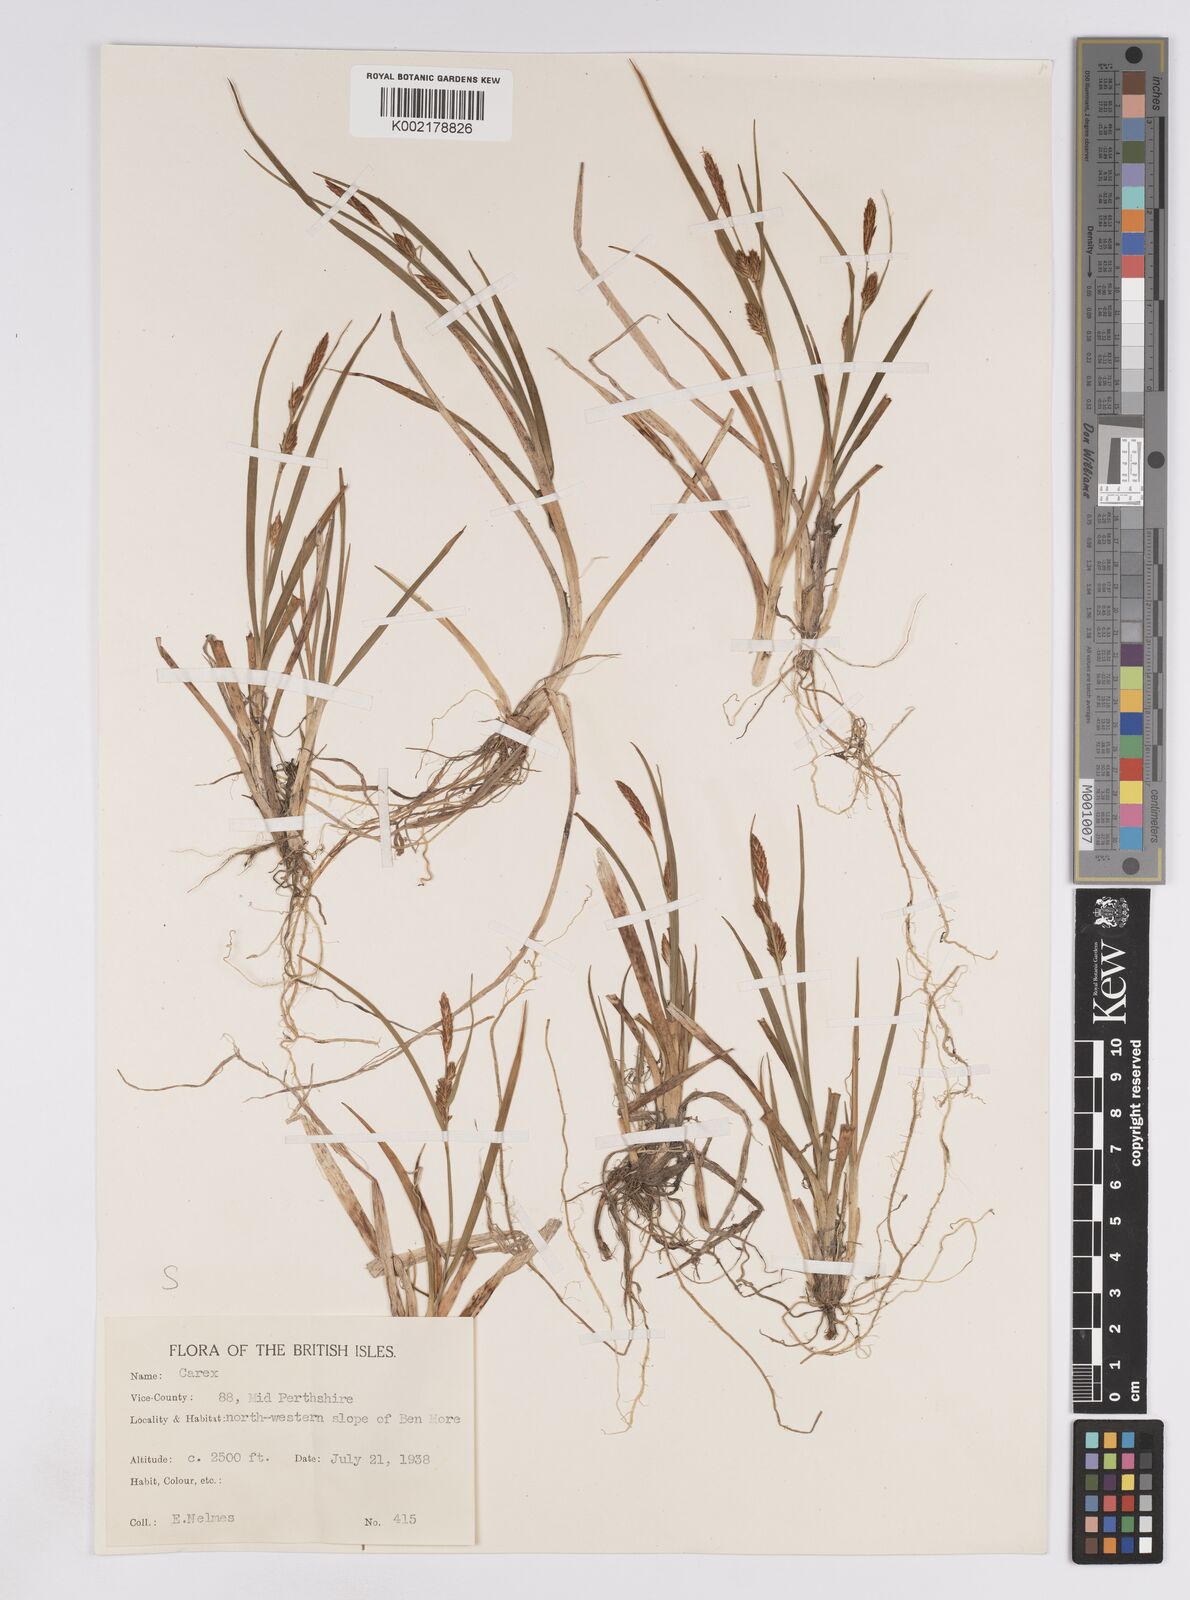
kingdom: Plantae
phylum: Tracheophyta
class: Liliopsida
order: Poales
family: Cyperaceae
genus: Carex
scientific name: Carex lepidocarpa
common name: Long-stalked yellow-sedge
